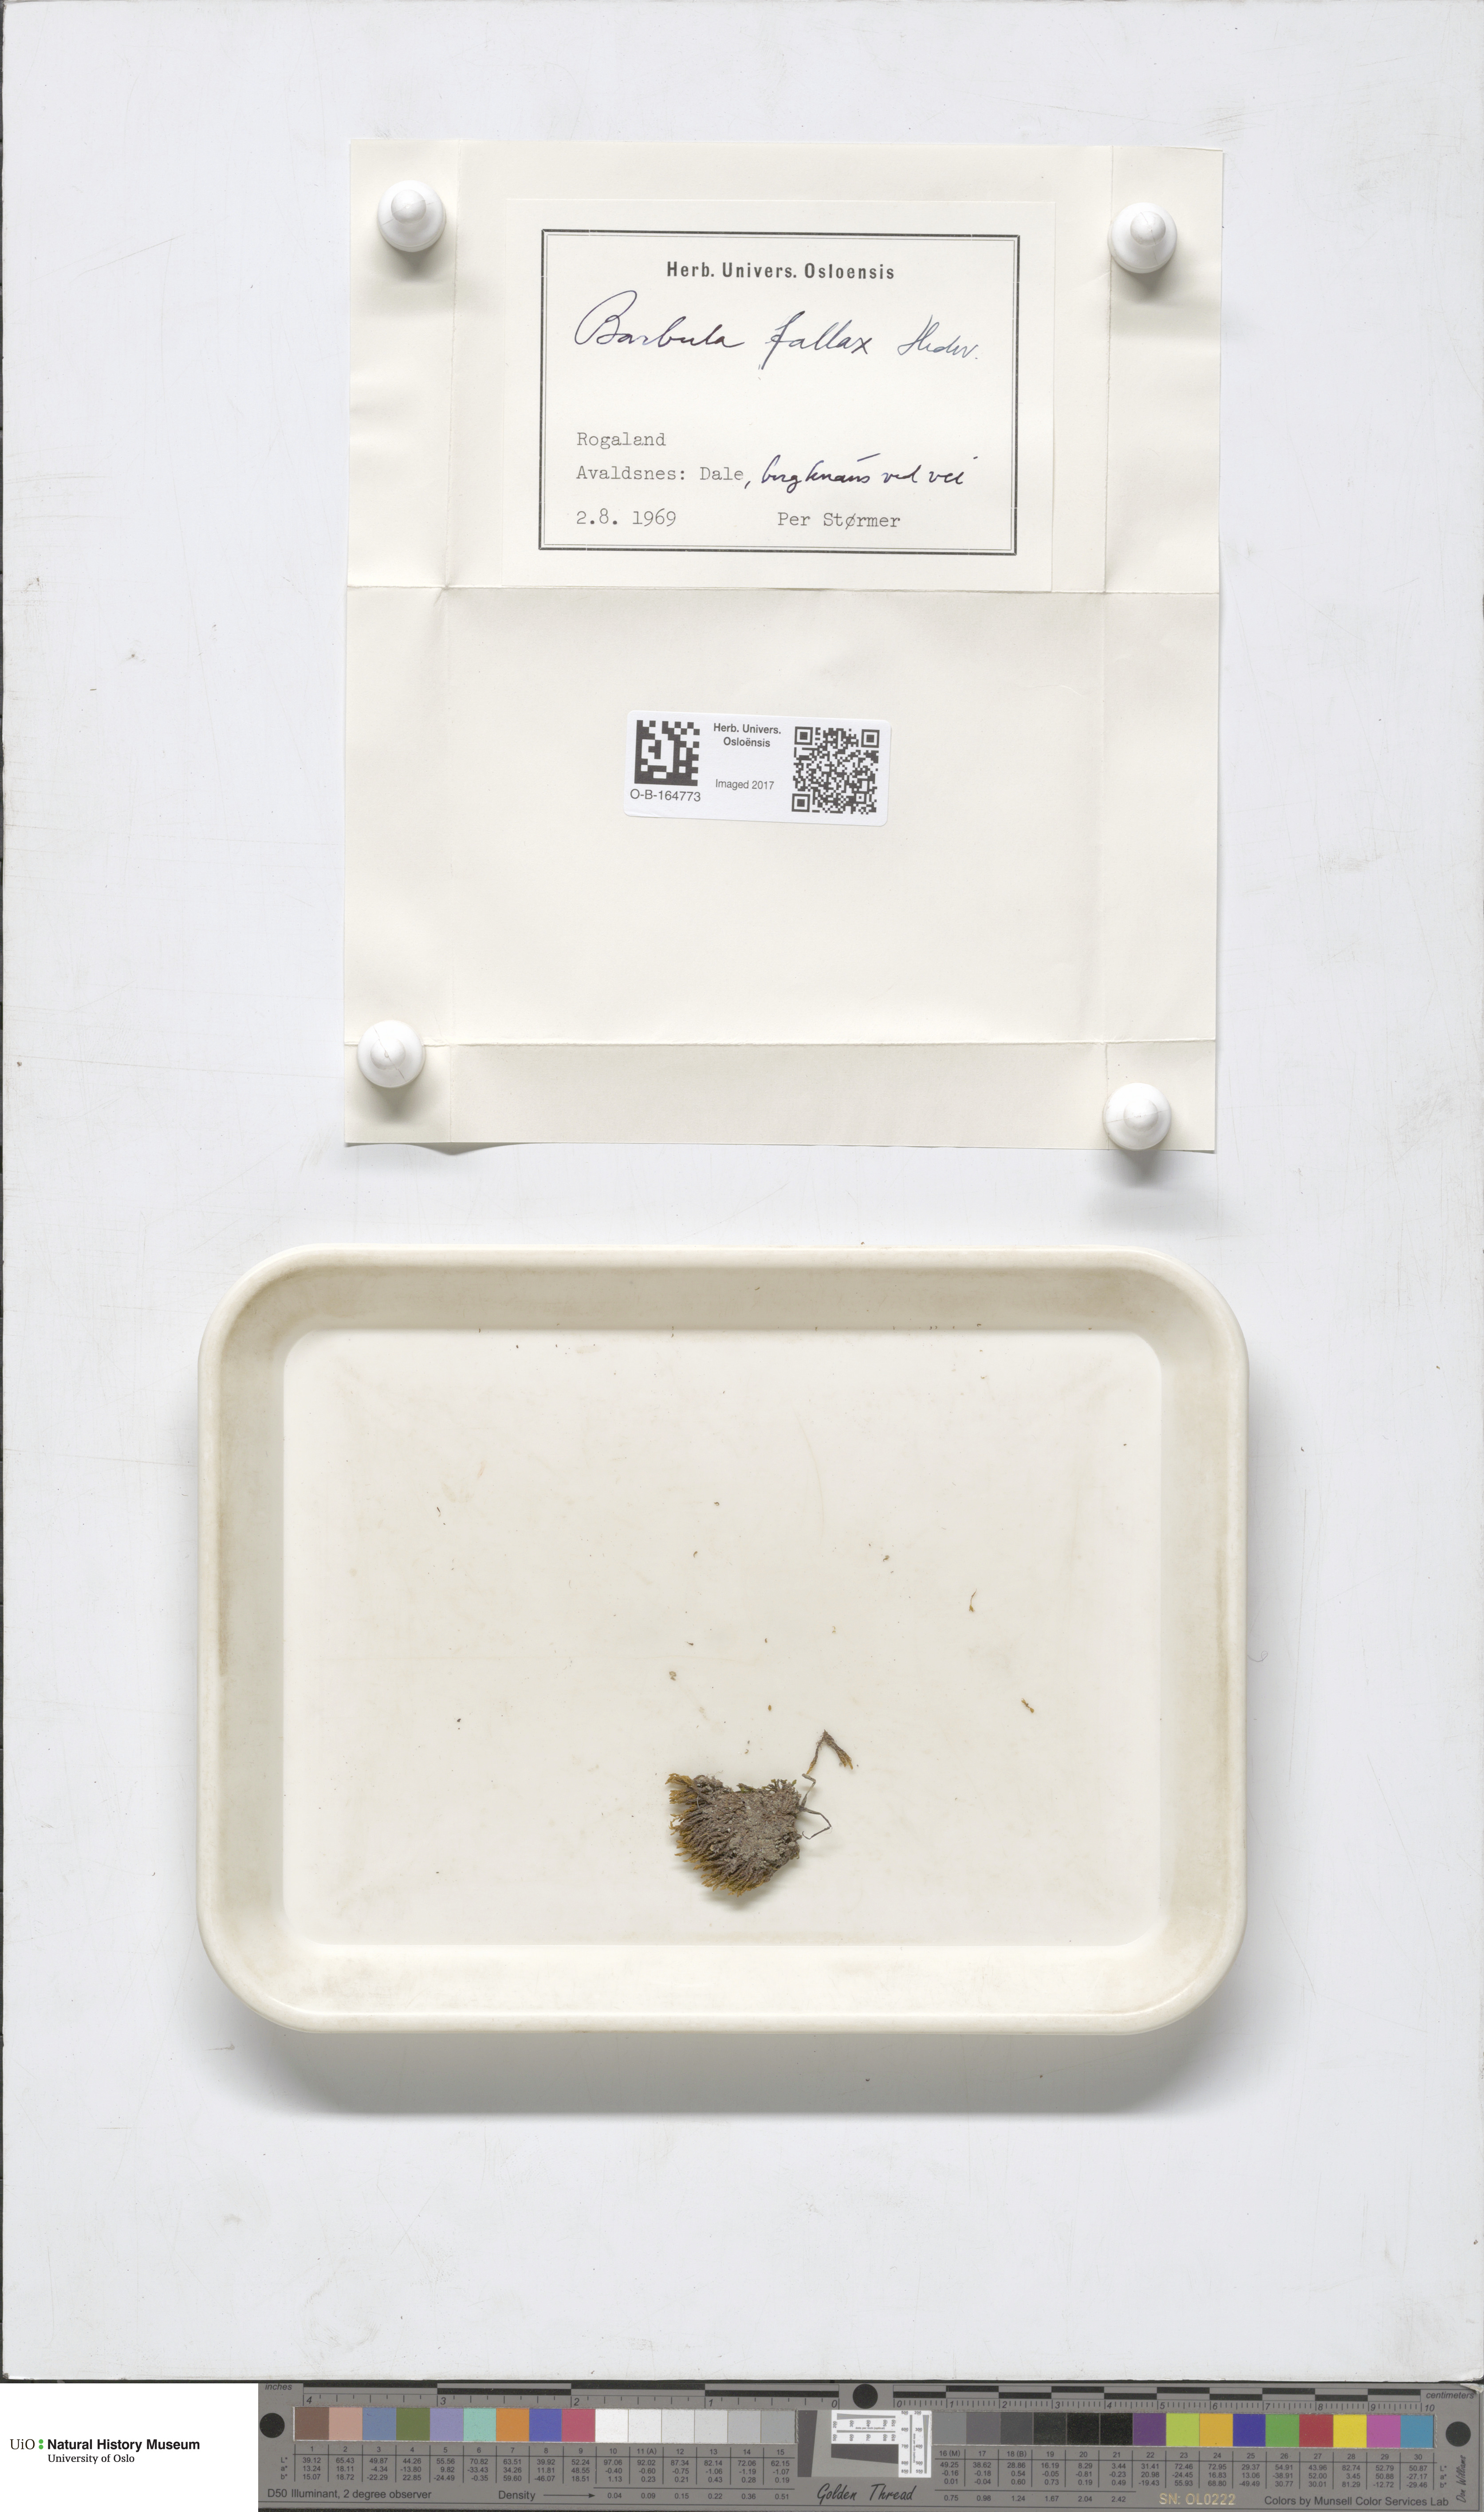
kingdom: Plantae
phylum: Bryophyta
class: Bryopsida
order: Pottiales
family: Pottiaceae
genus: Geheebia
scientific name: Geheebia fallax
